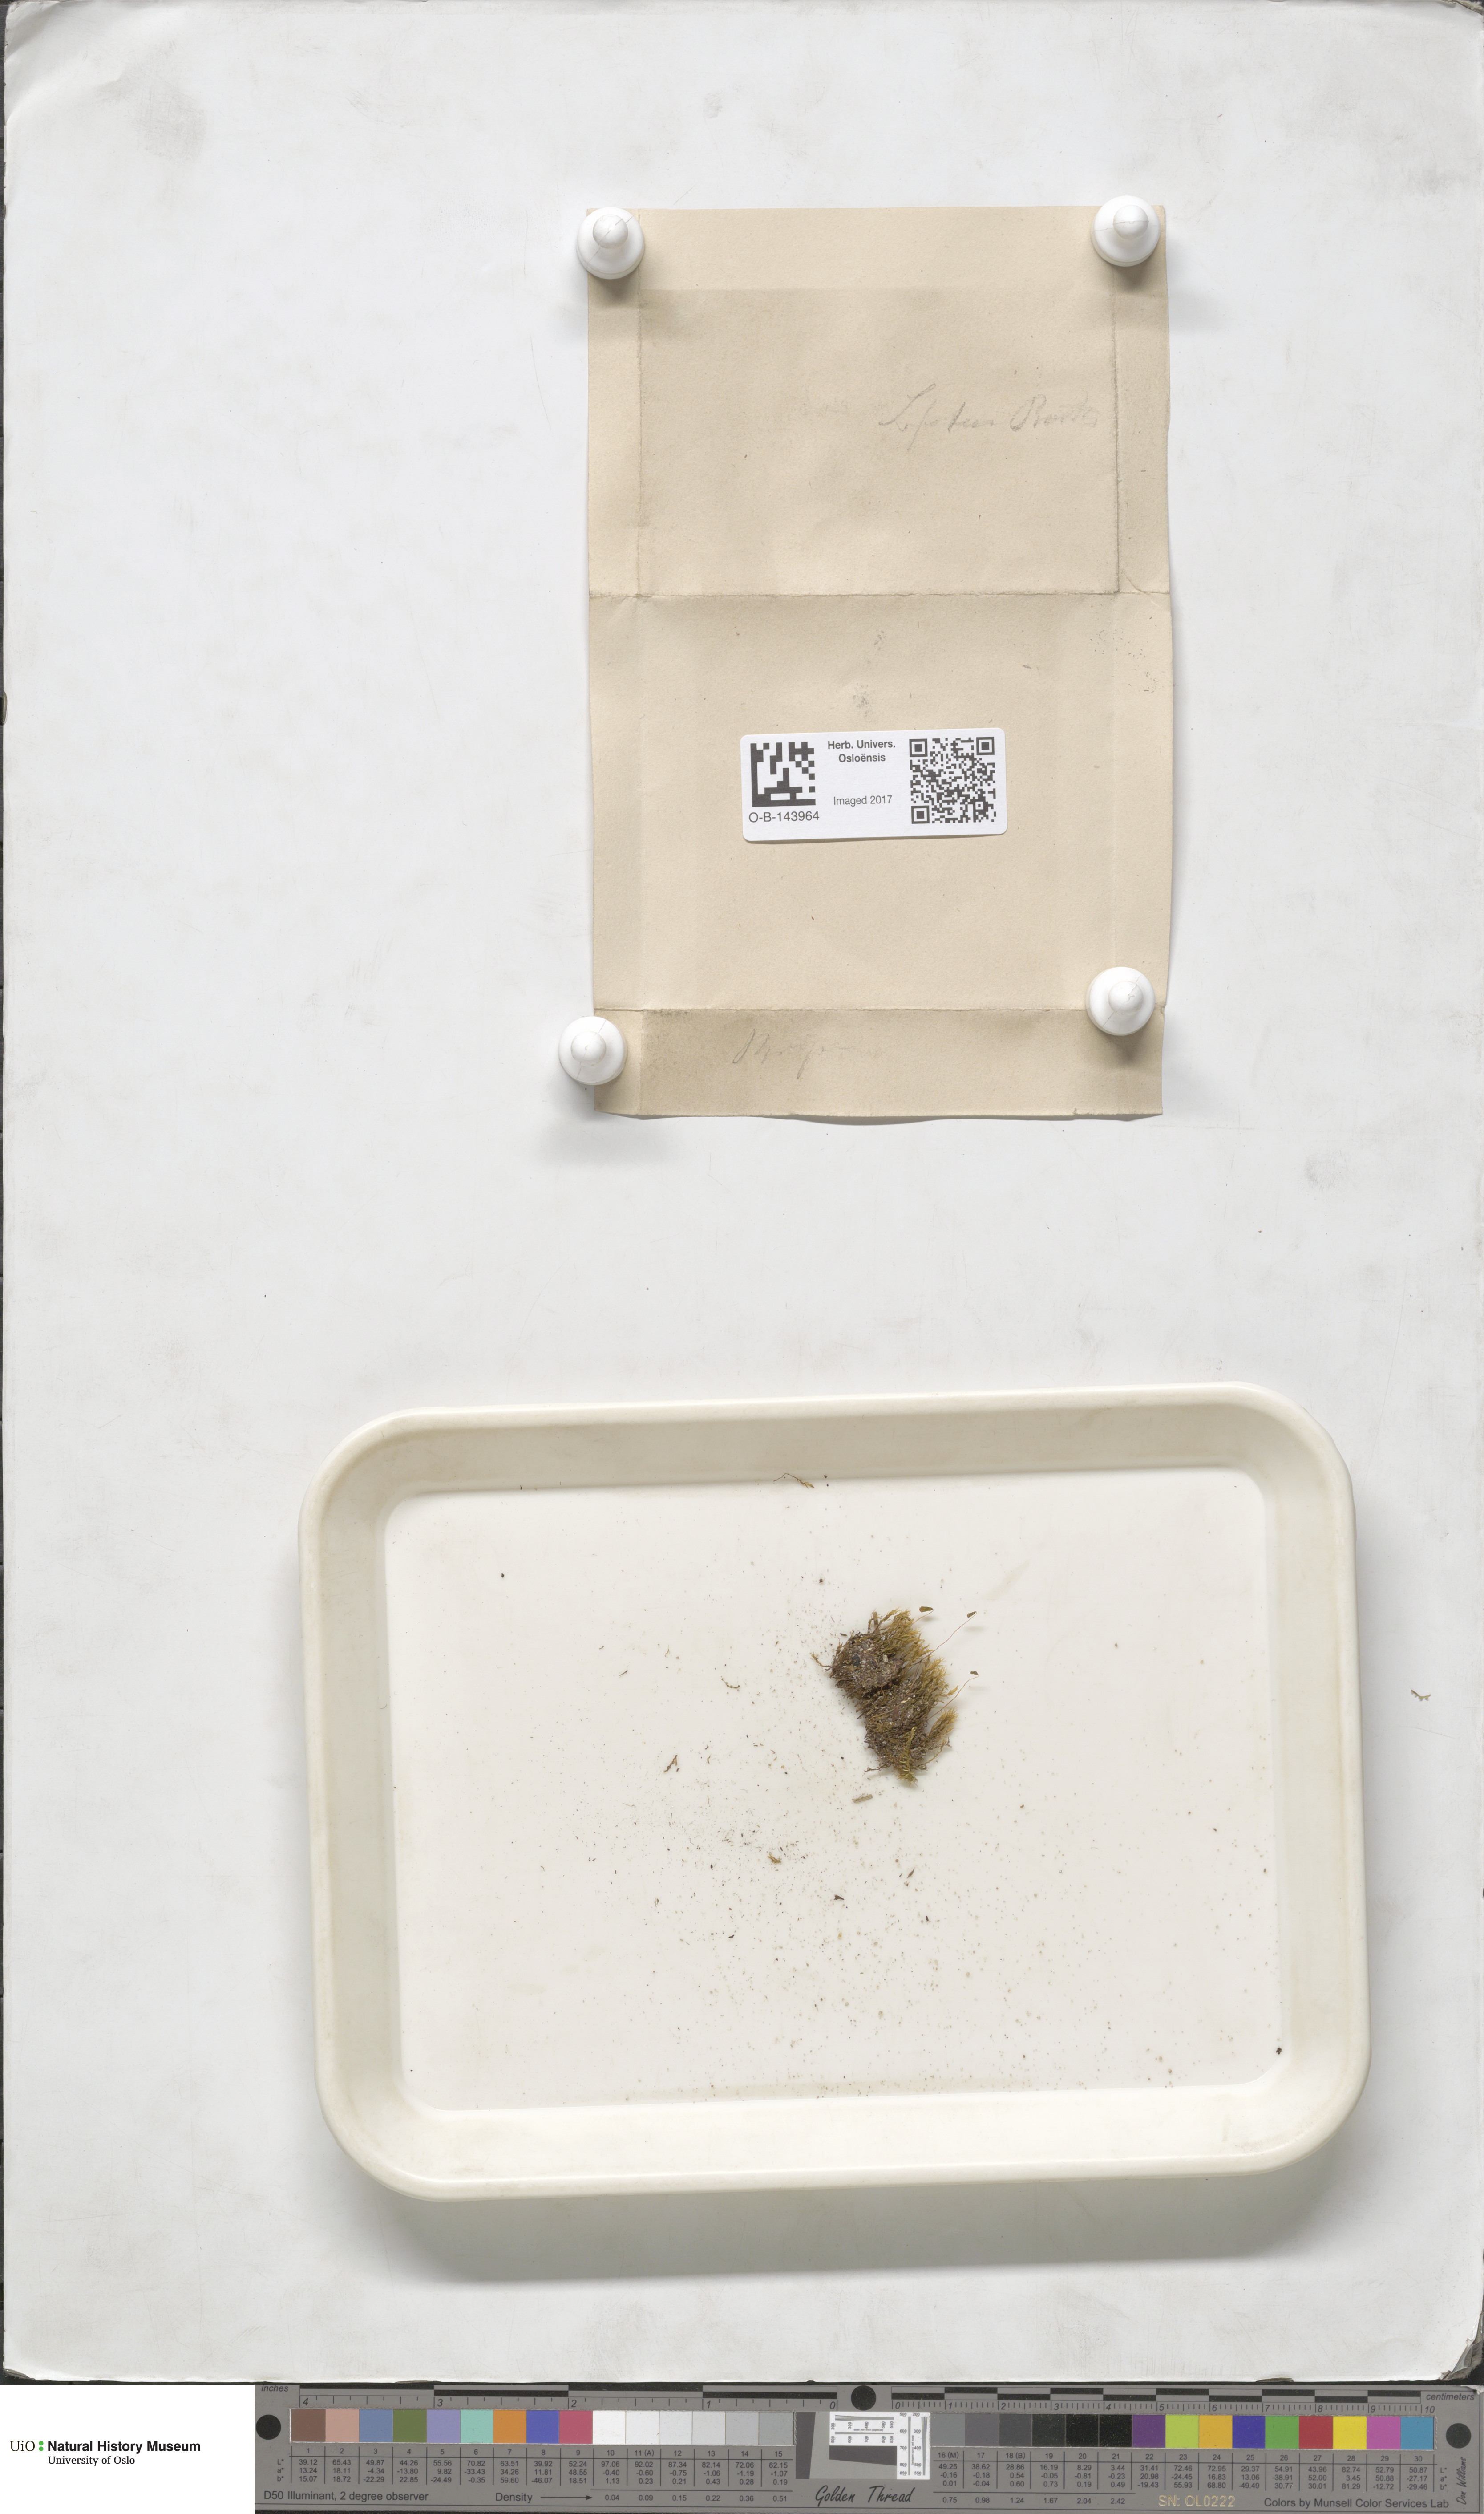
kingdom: Plantae
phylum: Bryophyta
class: Bryopsida
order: Bryales
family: Bryaceae
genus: Bryum
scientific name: Bryum
